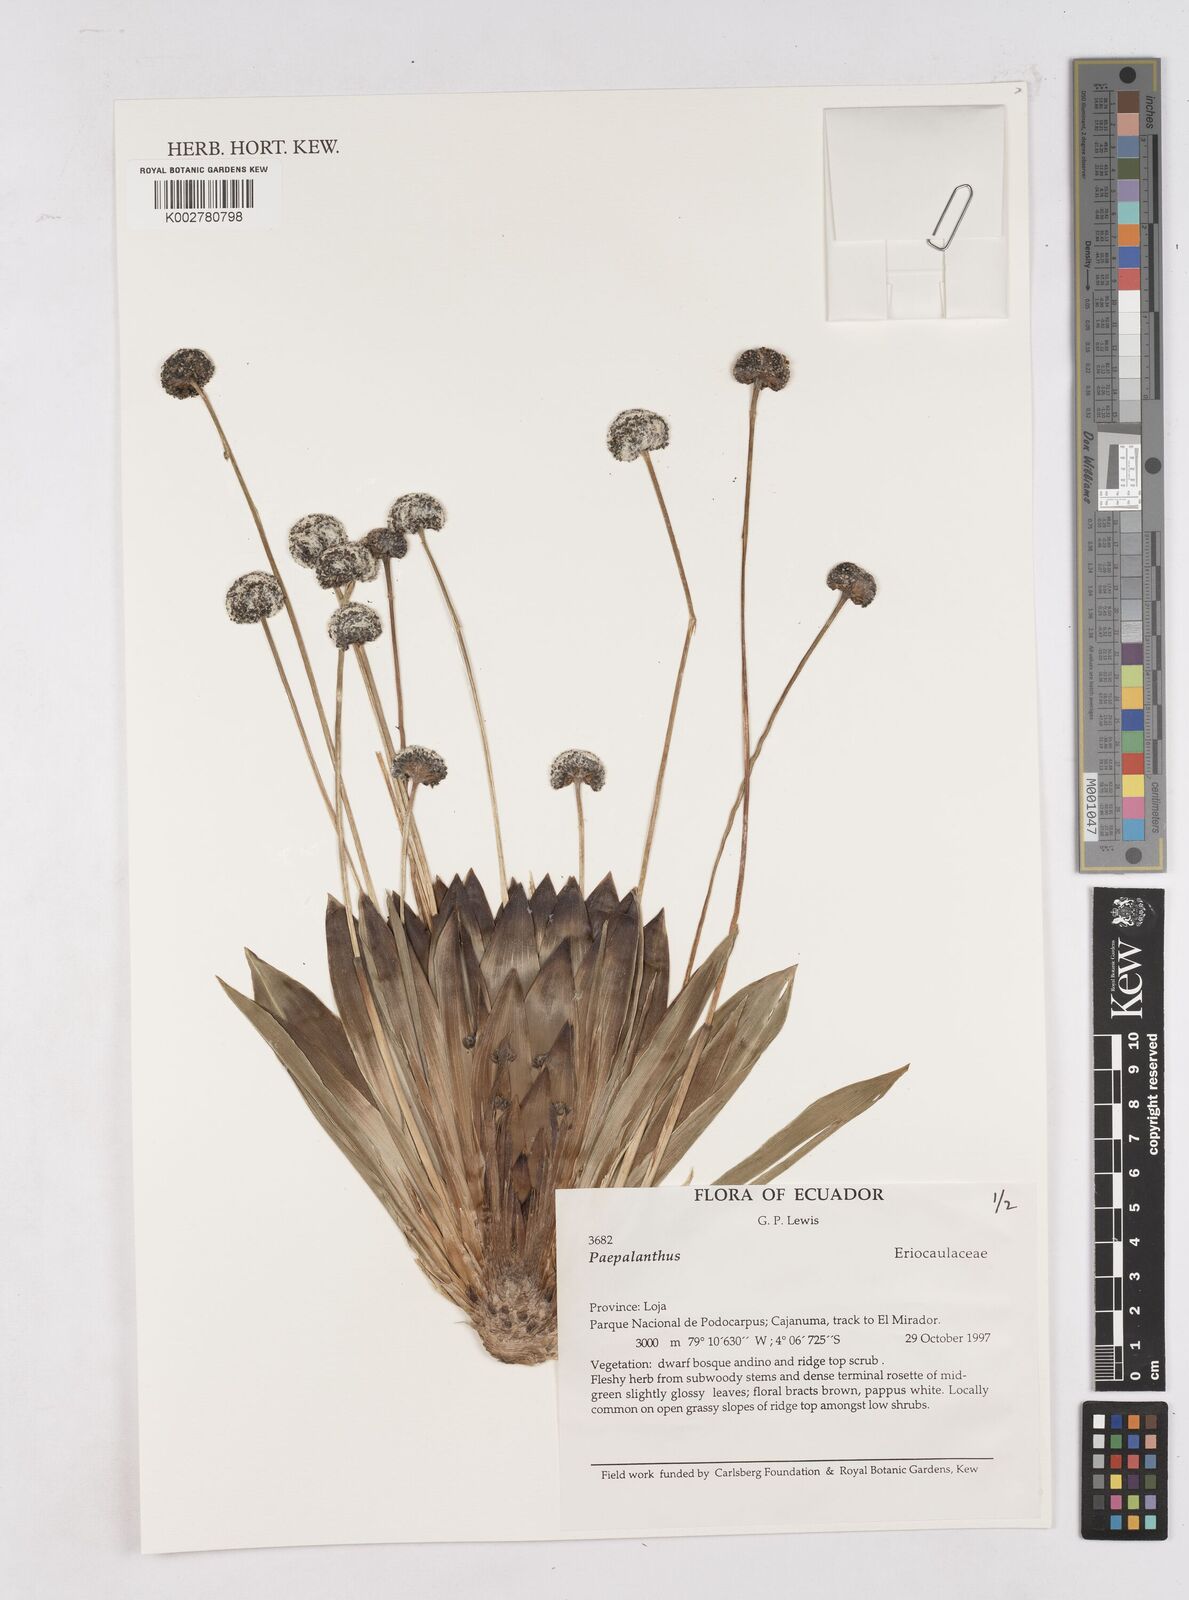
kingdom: Plantae
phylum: Tracheophyta
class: Liliopsida
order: Poales
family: Eriocaulaceae
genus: Paepalanthus
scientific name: Paepalanthus celsus
